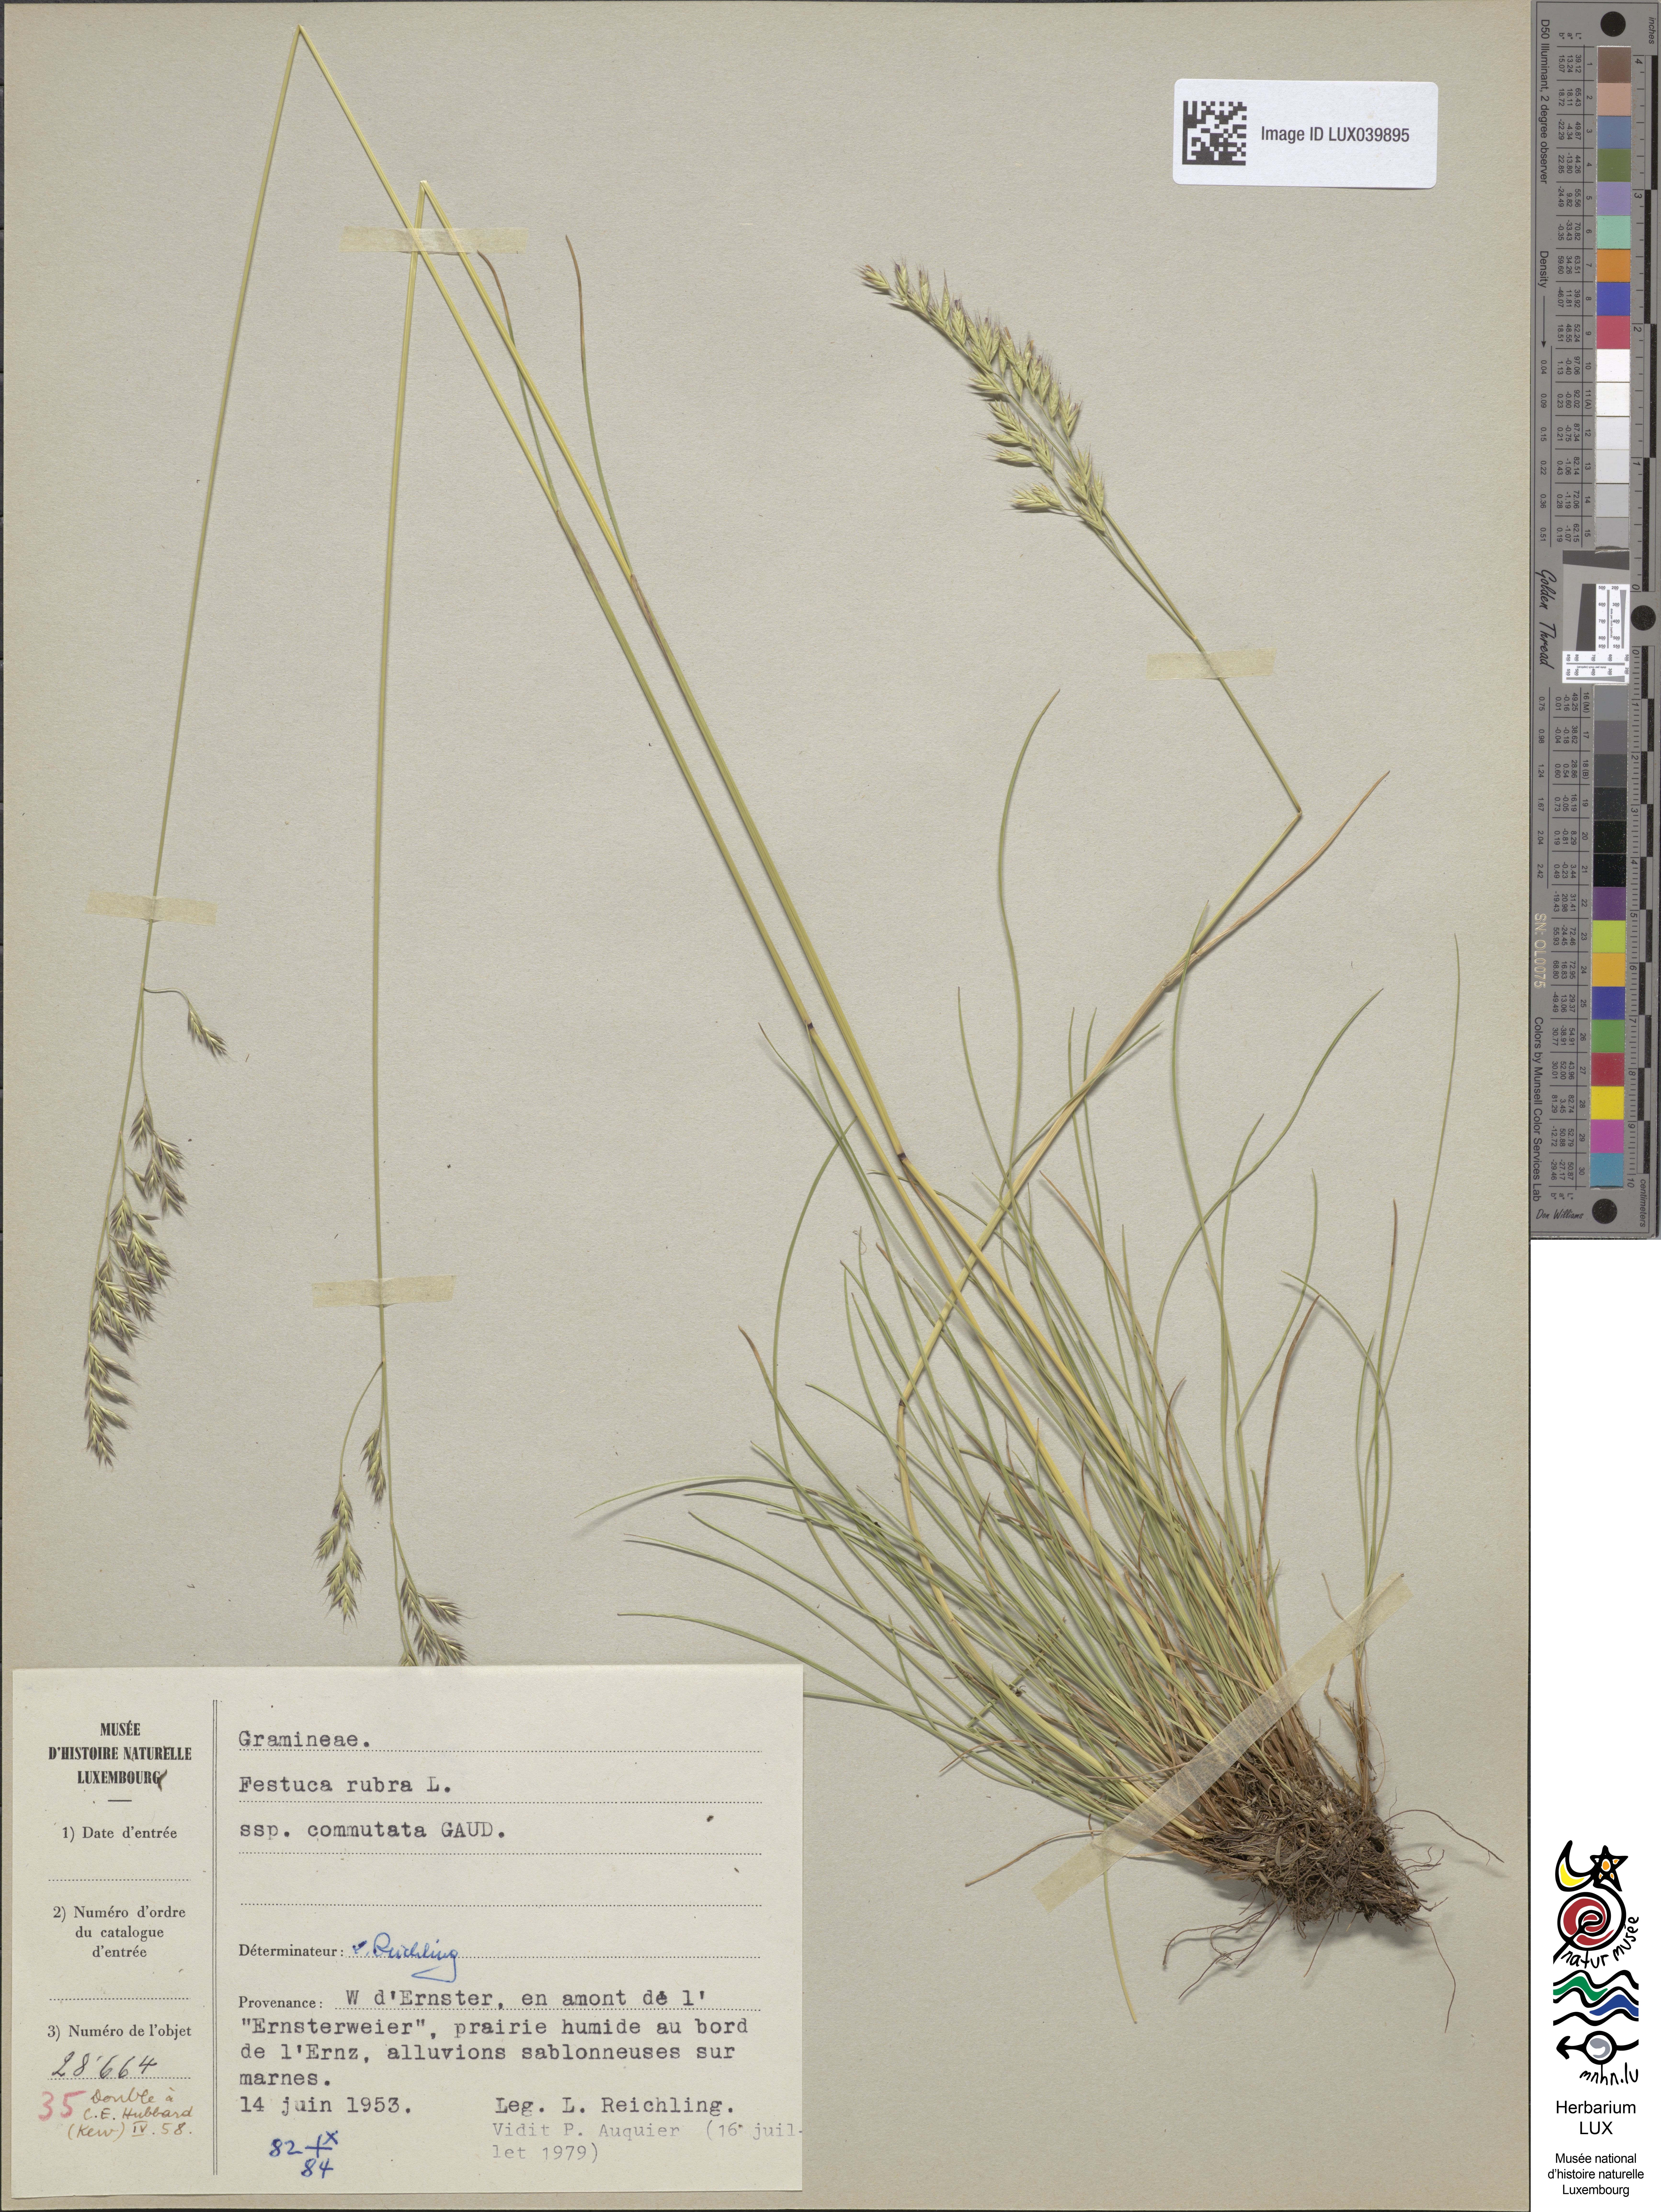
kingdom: Plantae
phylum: Tracheophyta
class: Liliopsida
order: Poales
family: Poaceae
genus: Festuca
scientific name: Festuca nigrescens
